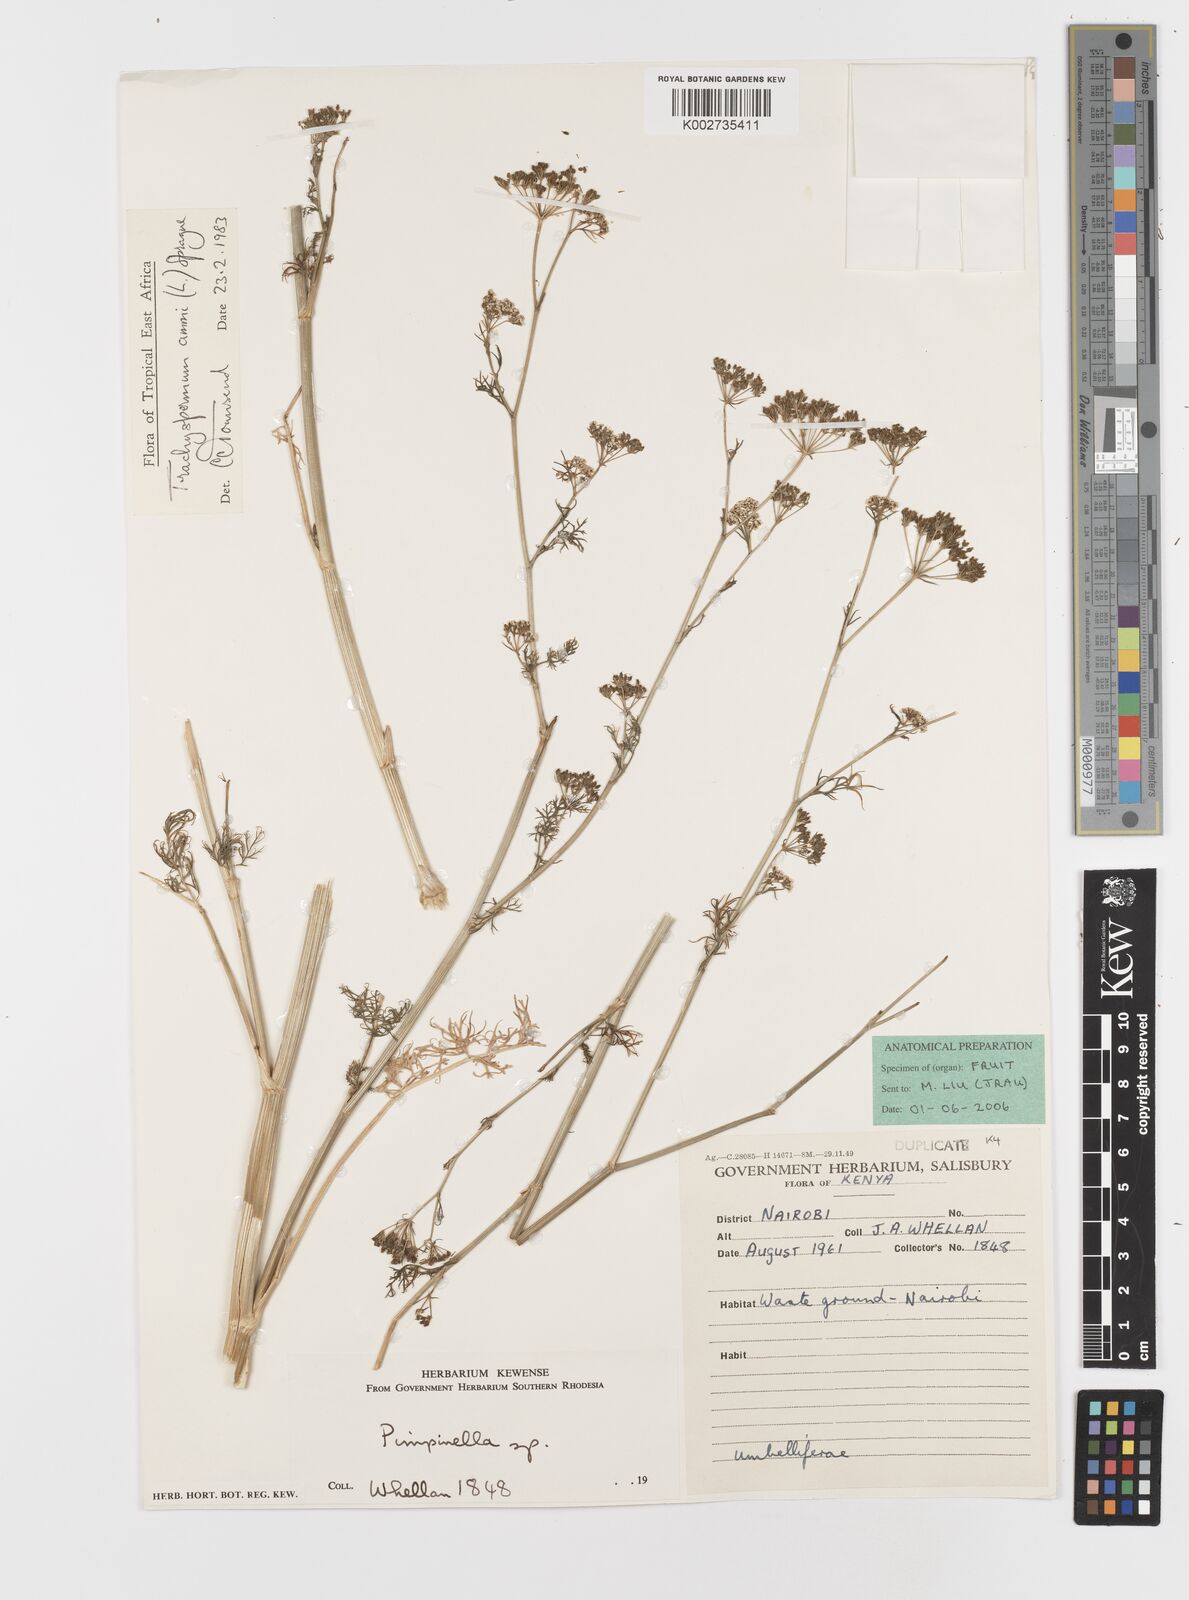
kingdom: Plantae
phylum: Tracheophyta
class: Magnoliopsida
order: Apiales
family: Apiaceae
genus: Trachyspermum
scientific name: Trachyspermum ammi
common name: Ajowan
